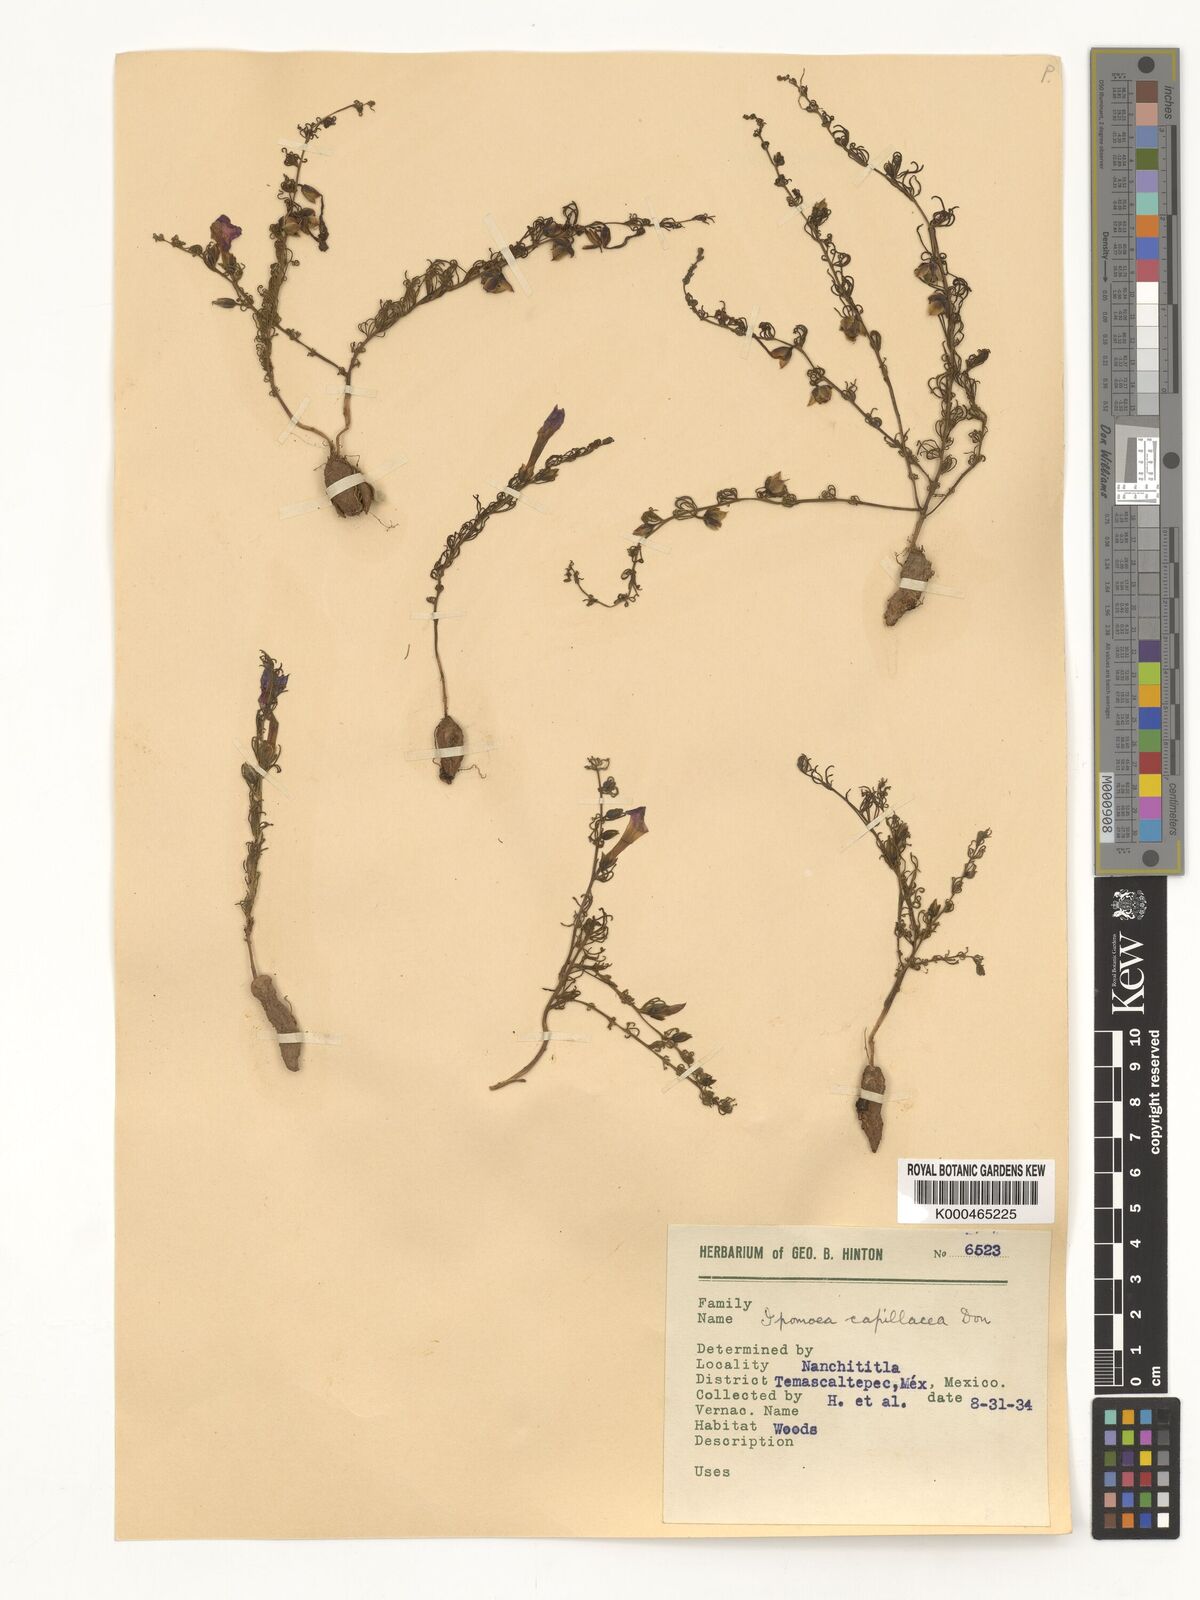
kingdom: Plantae
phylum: Tracheophyta
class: Magnoliopsida
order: Solanales
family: Convolvulaceae
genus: Ipomoea
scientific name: Ipomoea capillacea
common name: Purple morning-glory
